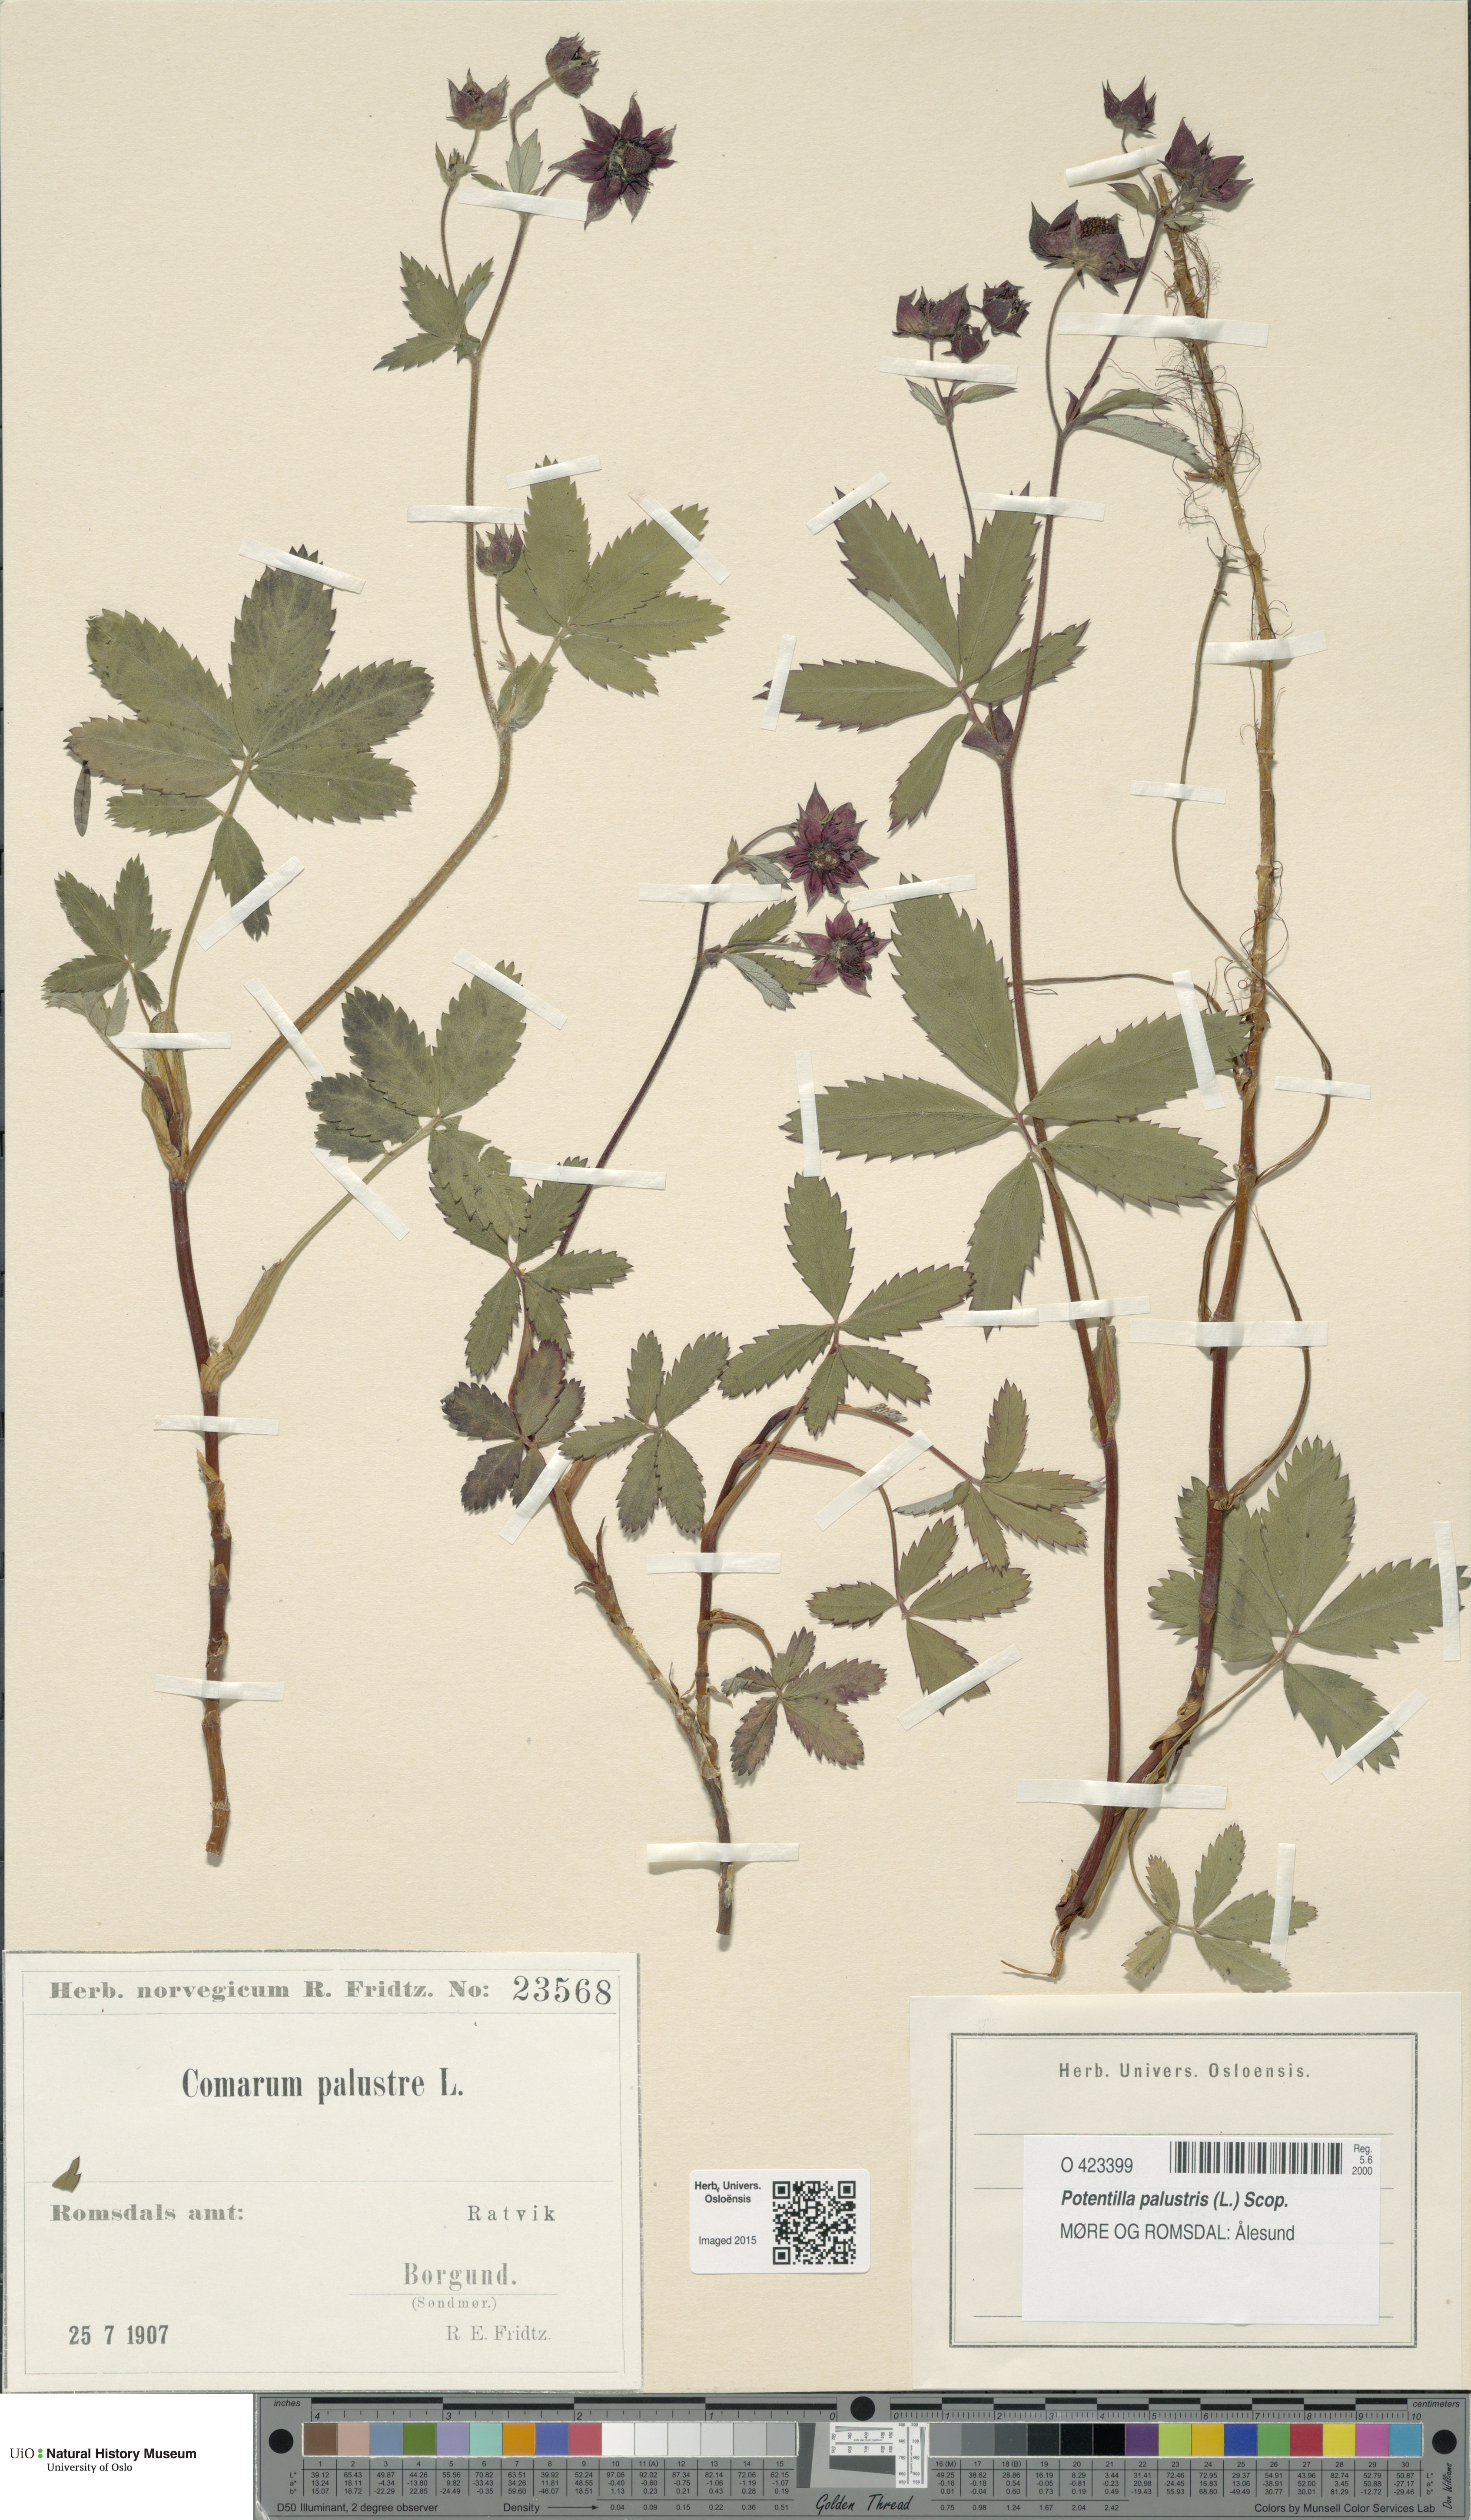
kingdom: Plantae
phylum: Tracheophyta
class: Magnoliopsida
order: Rosales
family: Rosaceae
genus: Comarum
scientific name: Comarum palustre
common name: Marsh cinquefoil
